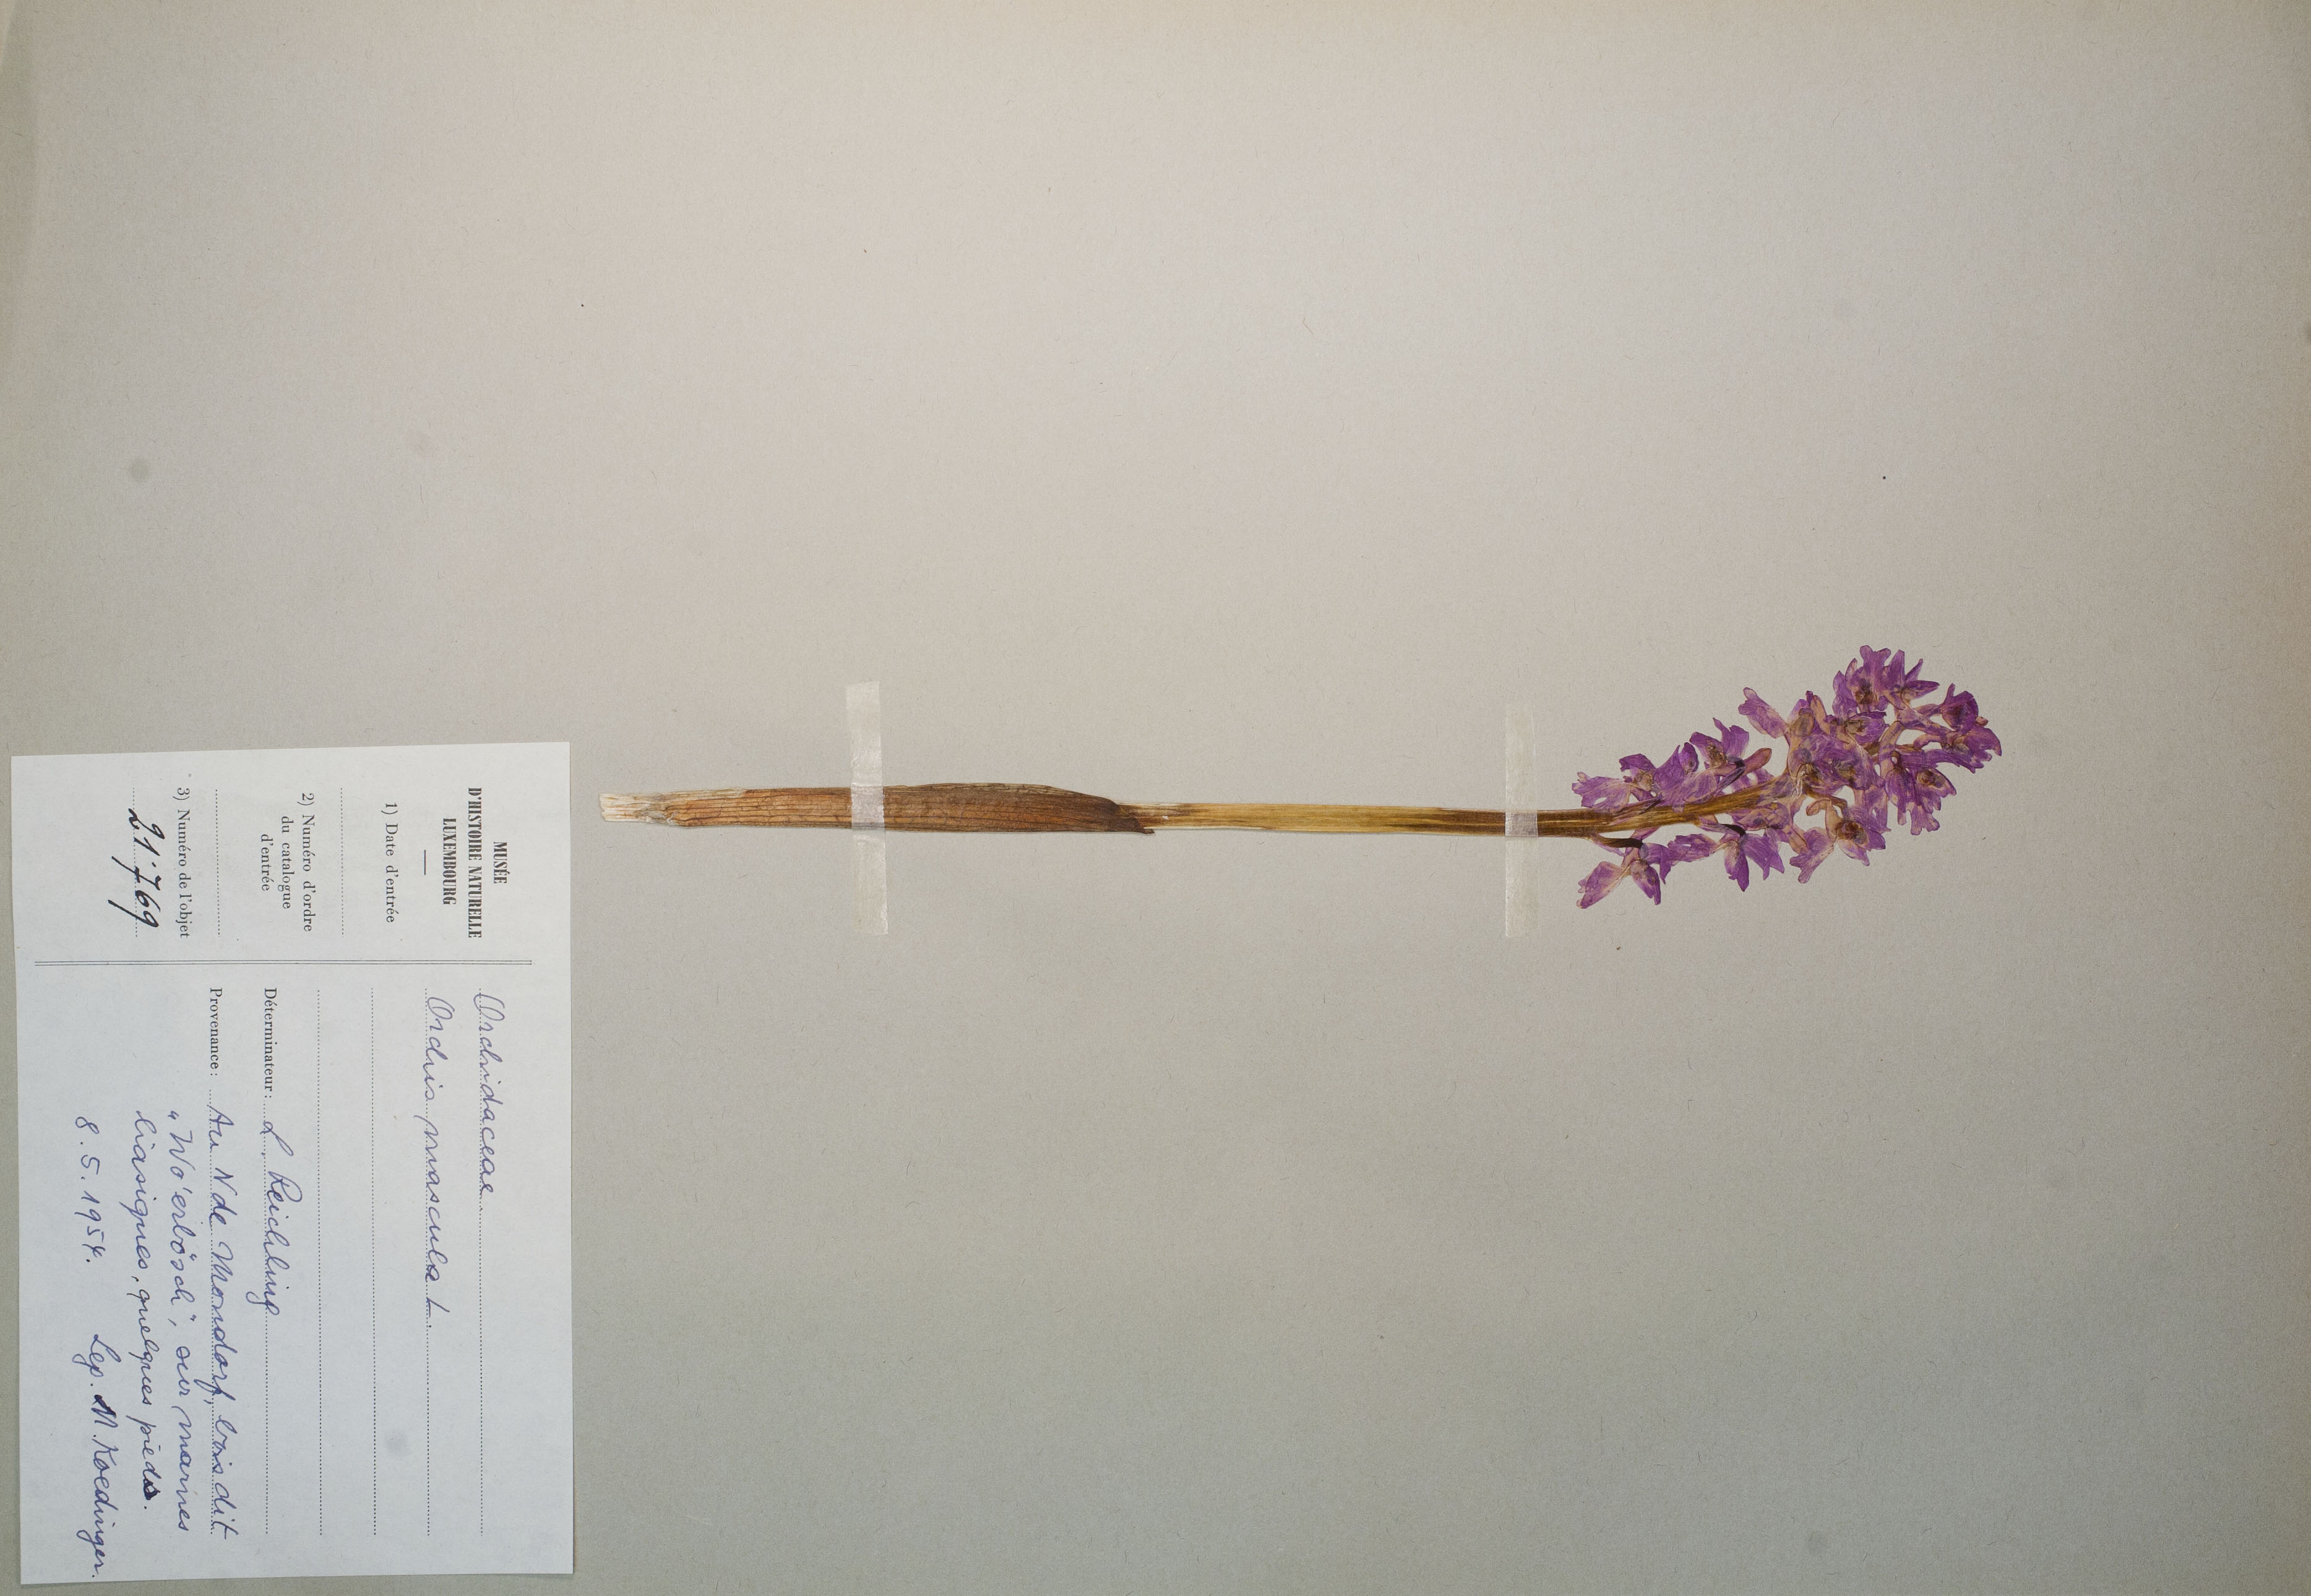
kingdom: Plantae
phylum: Tracheophyta
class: Liliopsida
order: Asparagales
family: Orchidaceae
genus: Orchis
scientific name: Orchis mascula
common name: Early-purple orchid
